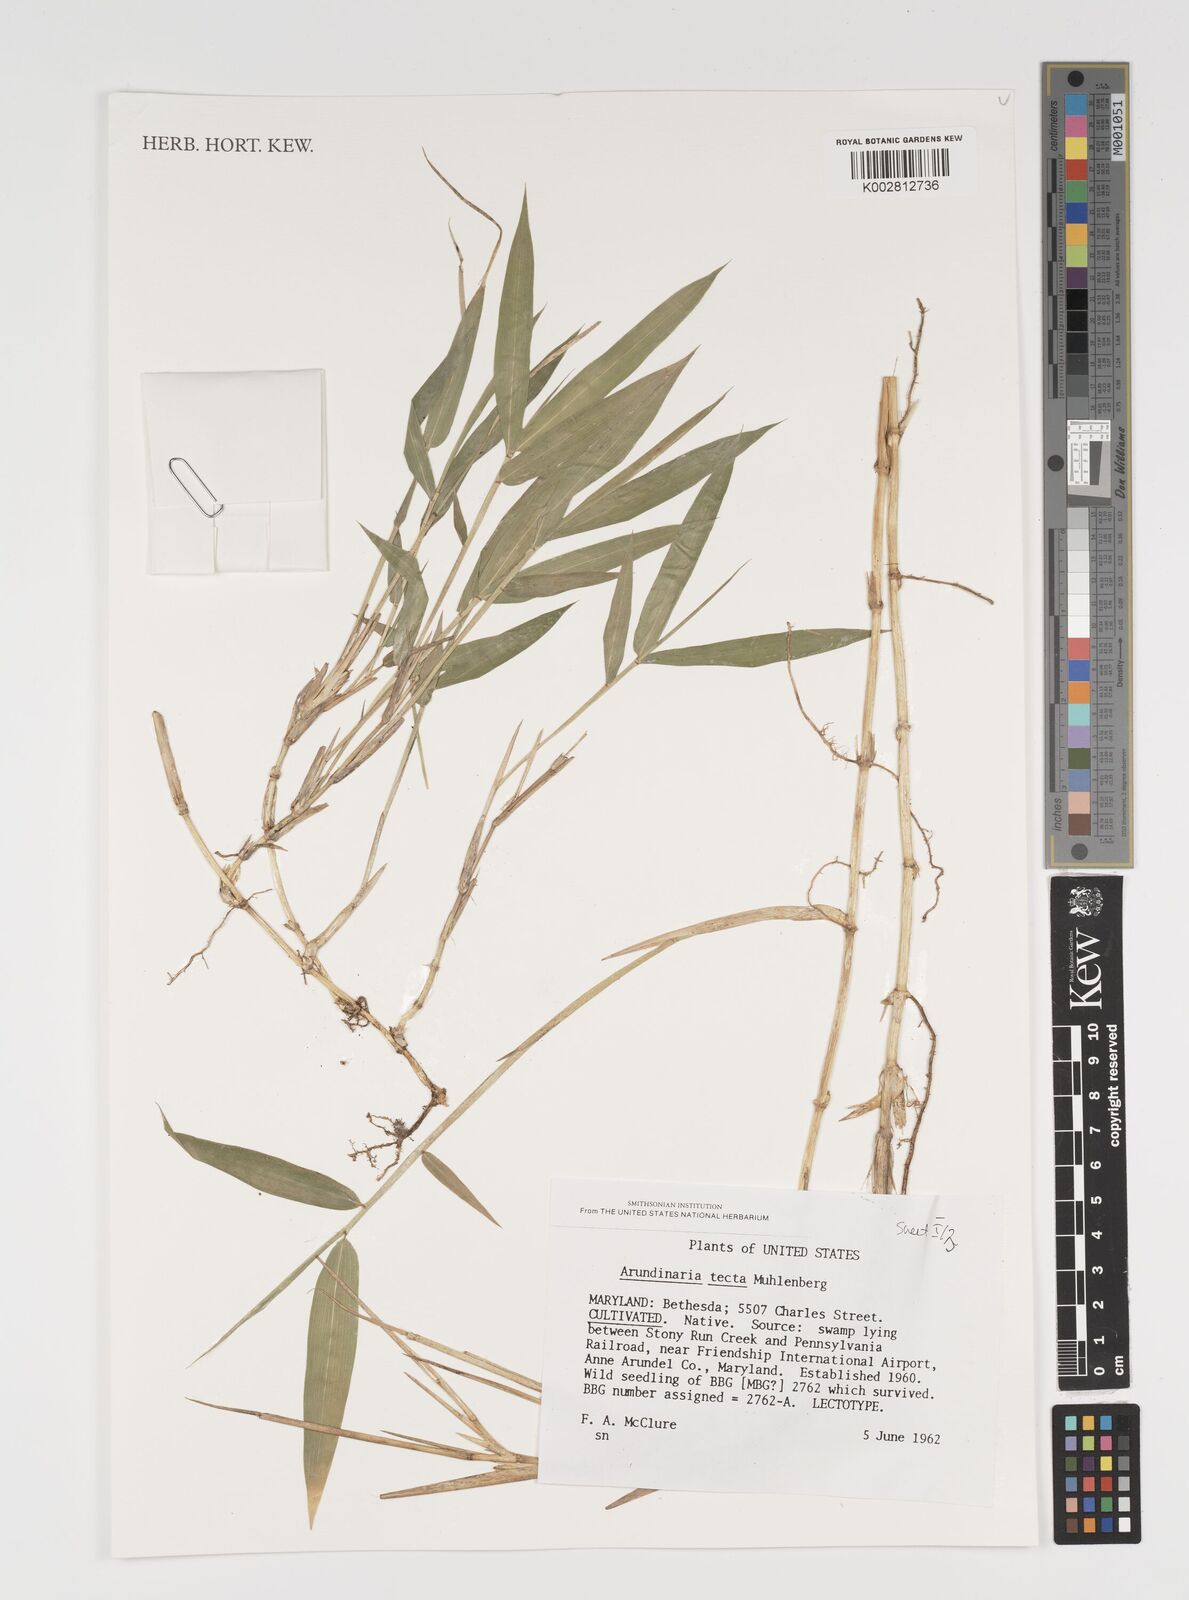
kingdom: Plantae
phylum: Tracheophyta
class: Liliopsida
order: Poales
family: Poaceae
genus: Arundinaria
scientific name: Arundinaria tecta
